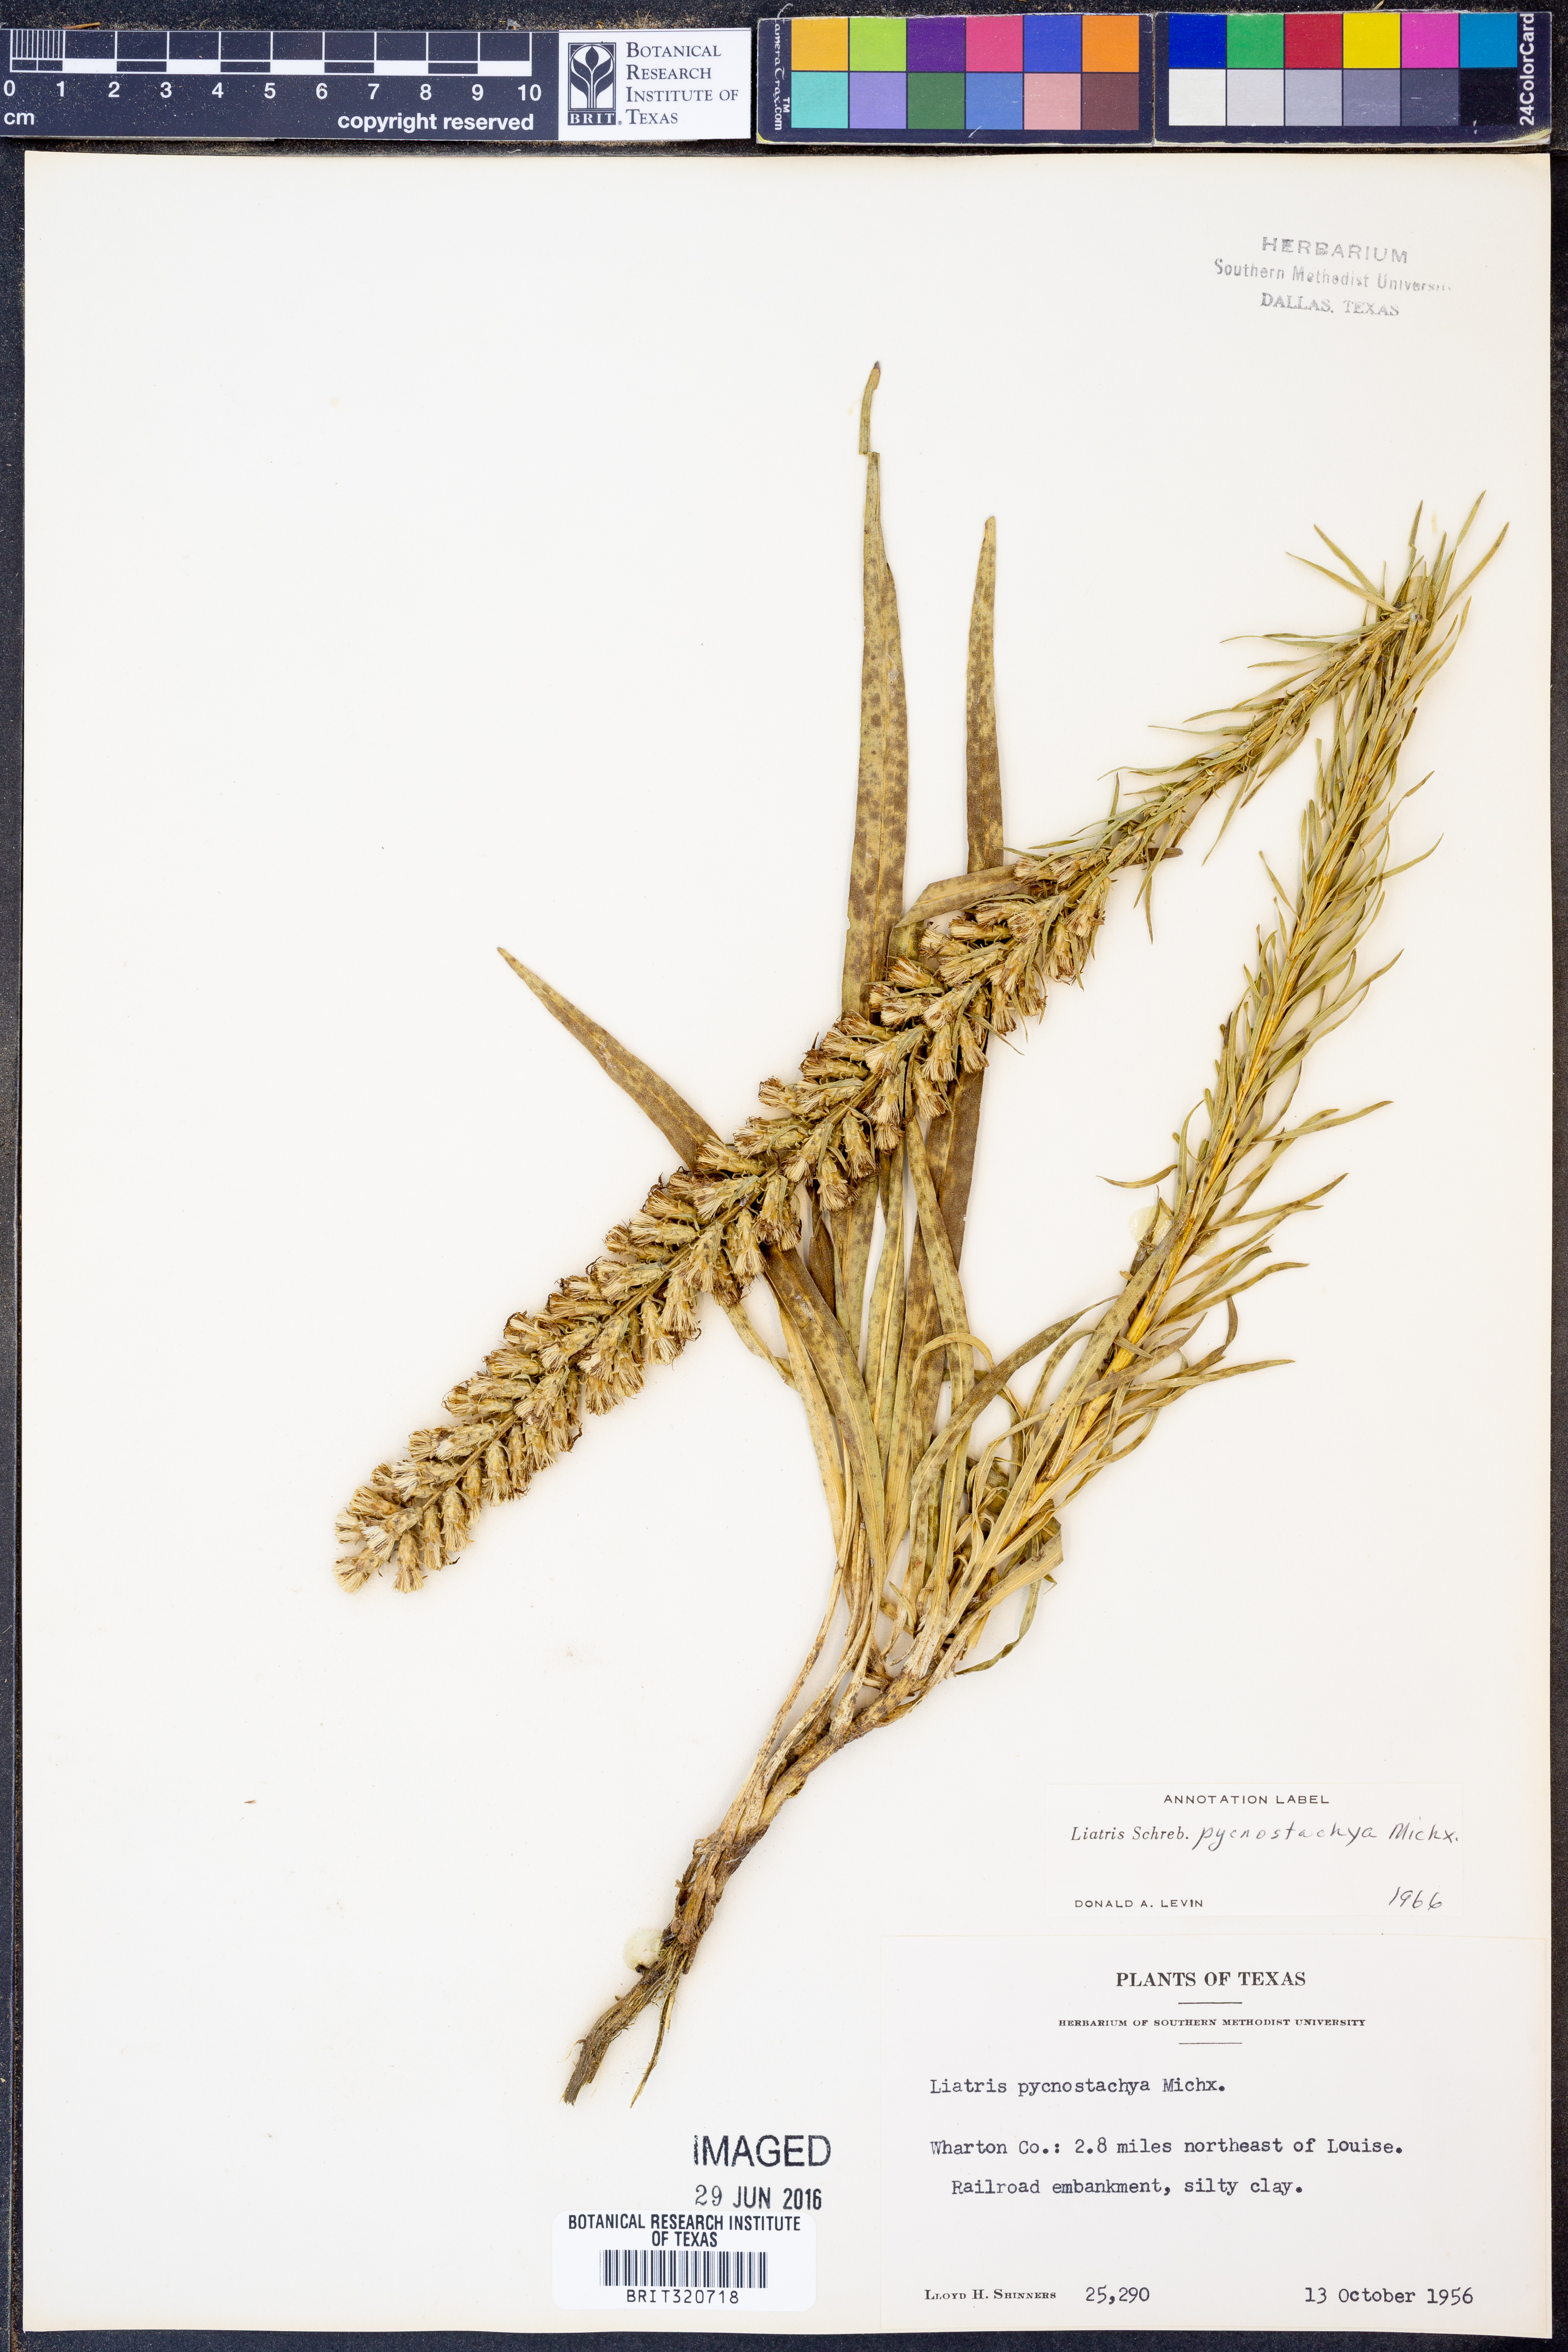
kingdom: Plantae
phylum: Tracheophyta
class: Magnoliopsida
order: Asterales
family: Asteraceae
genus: Liatris
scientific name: Liatris pycnostachya
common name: Cattail gayfeather
